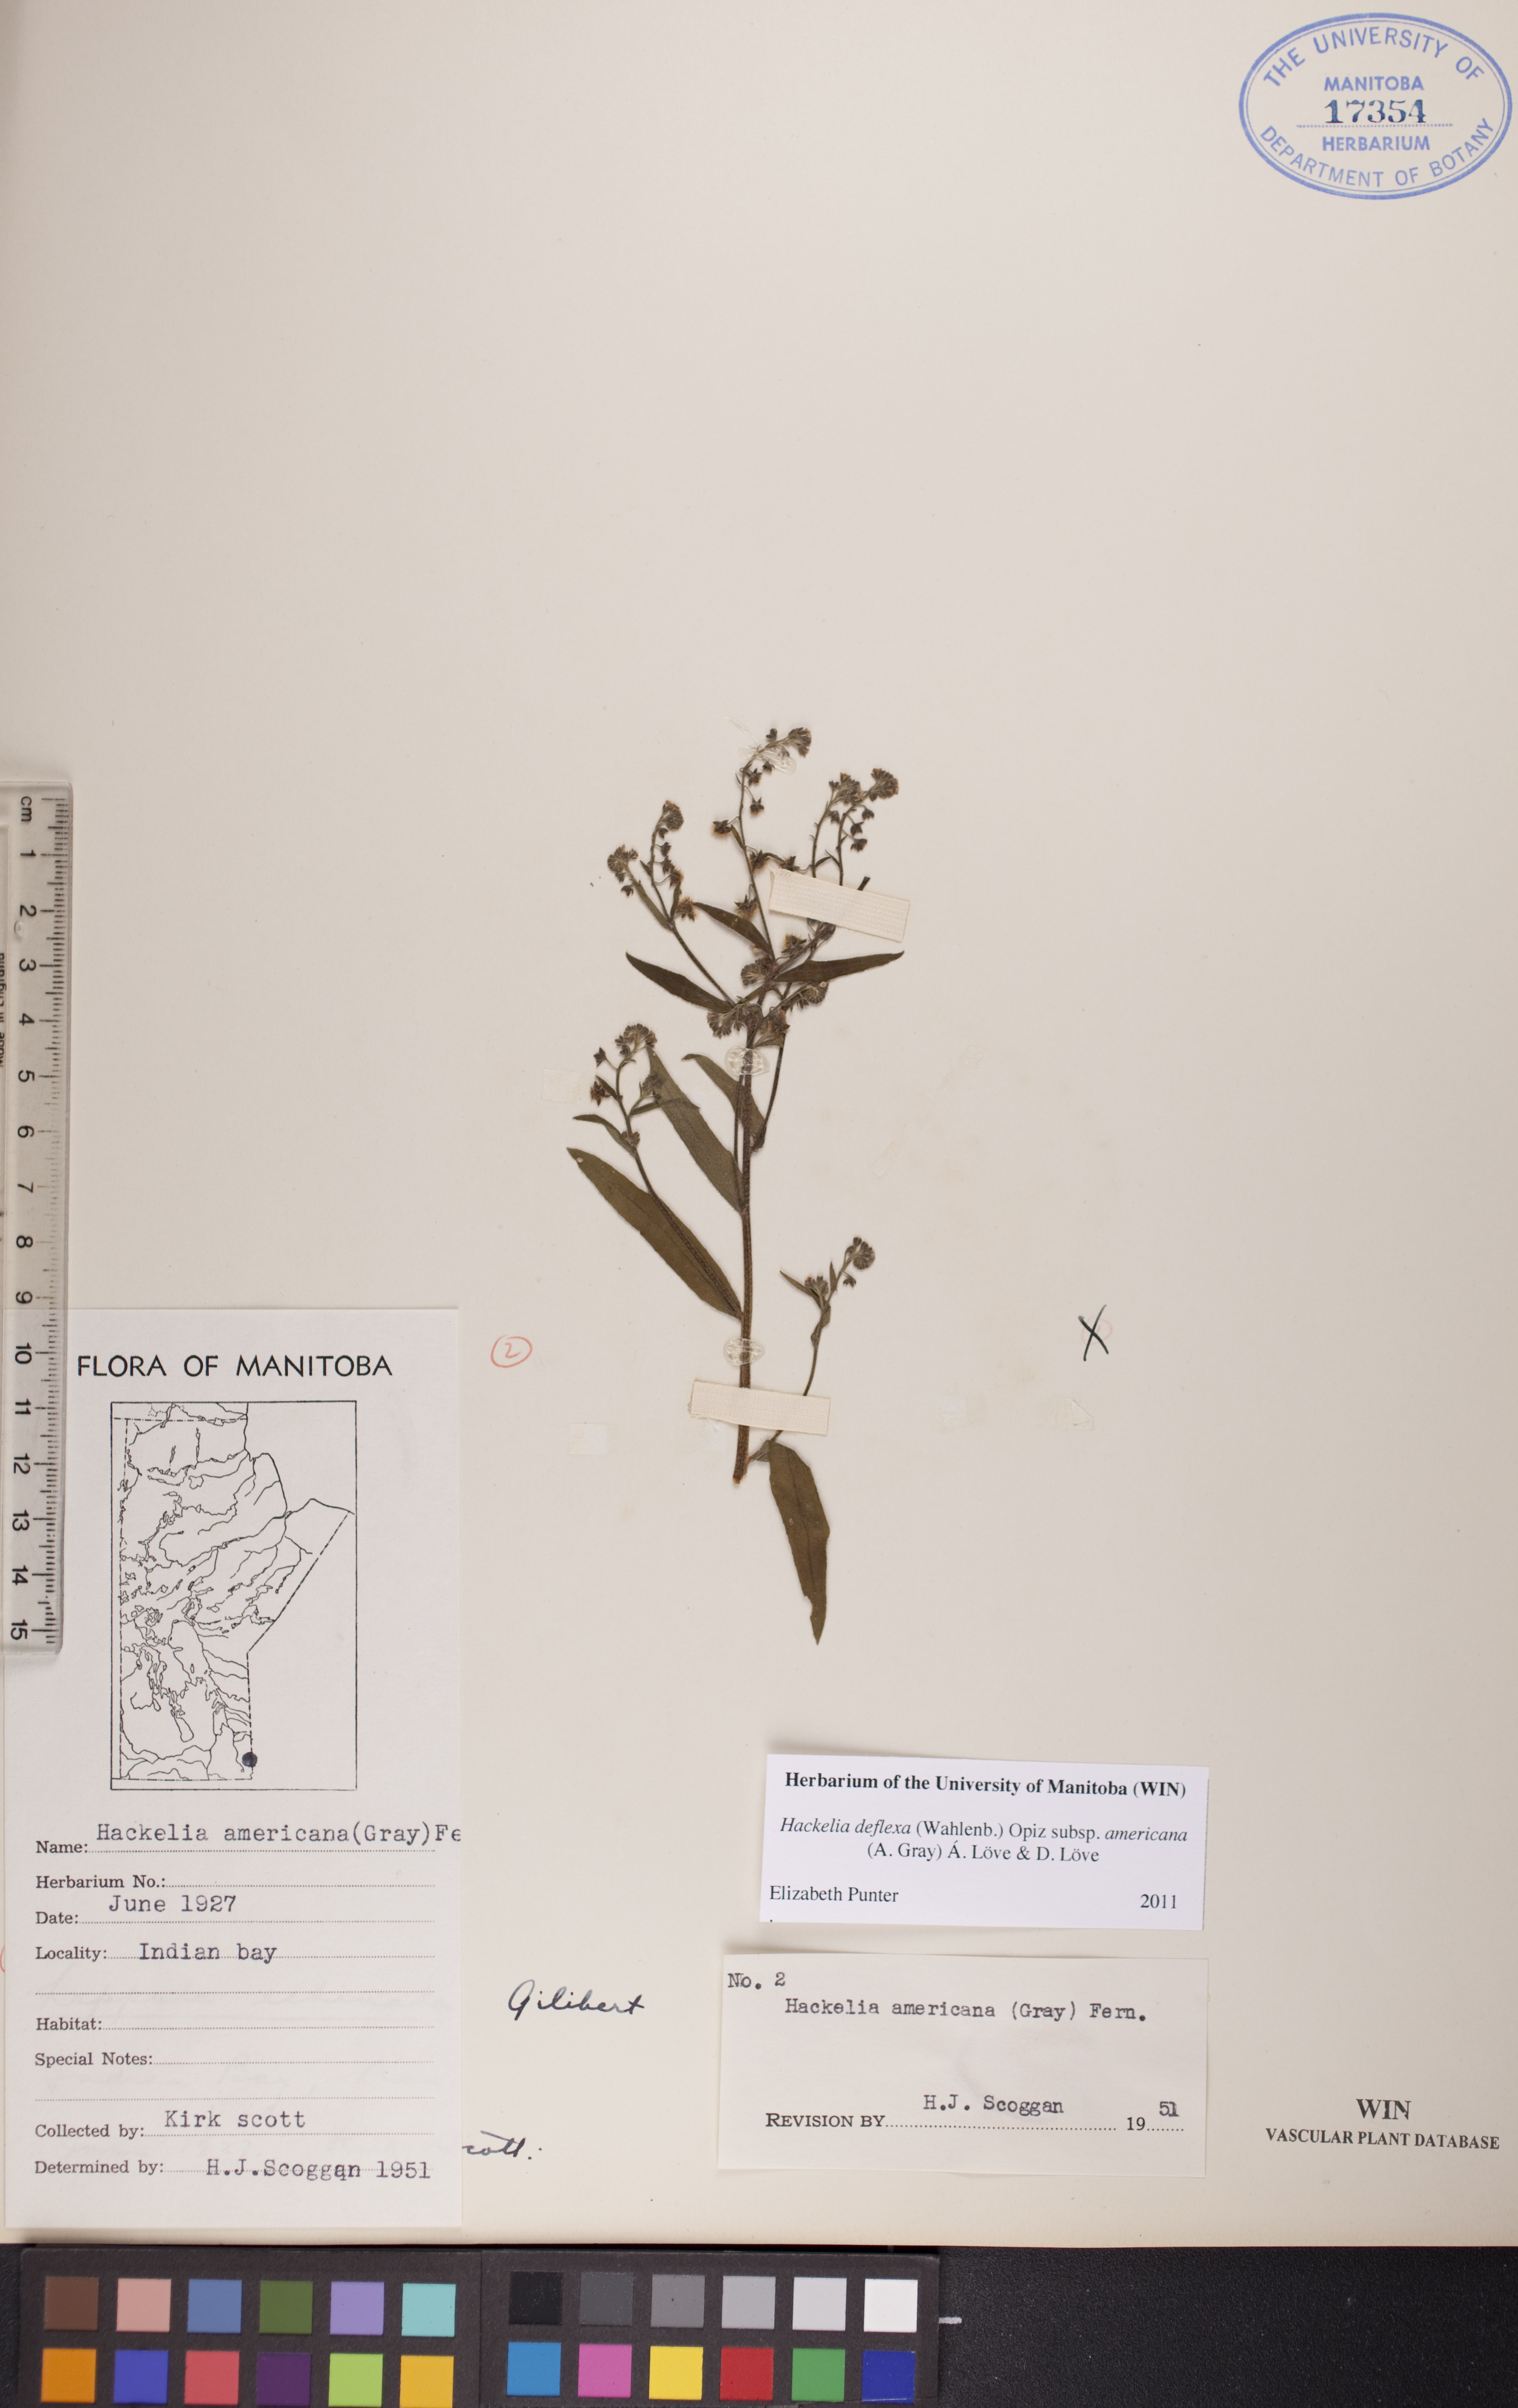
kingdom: Plantae
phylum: Tracheophyta
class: Magnoliopsida
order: Boraginales
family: Boraginaceae
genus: Hackelia
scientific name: Hackelia deflexa
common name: Nodding stickseed
